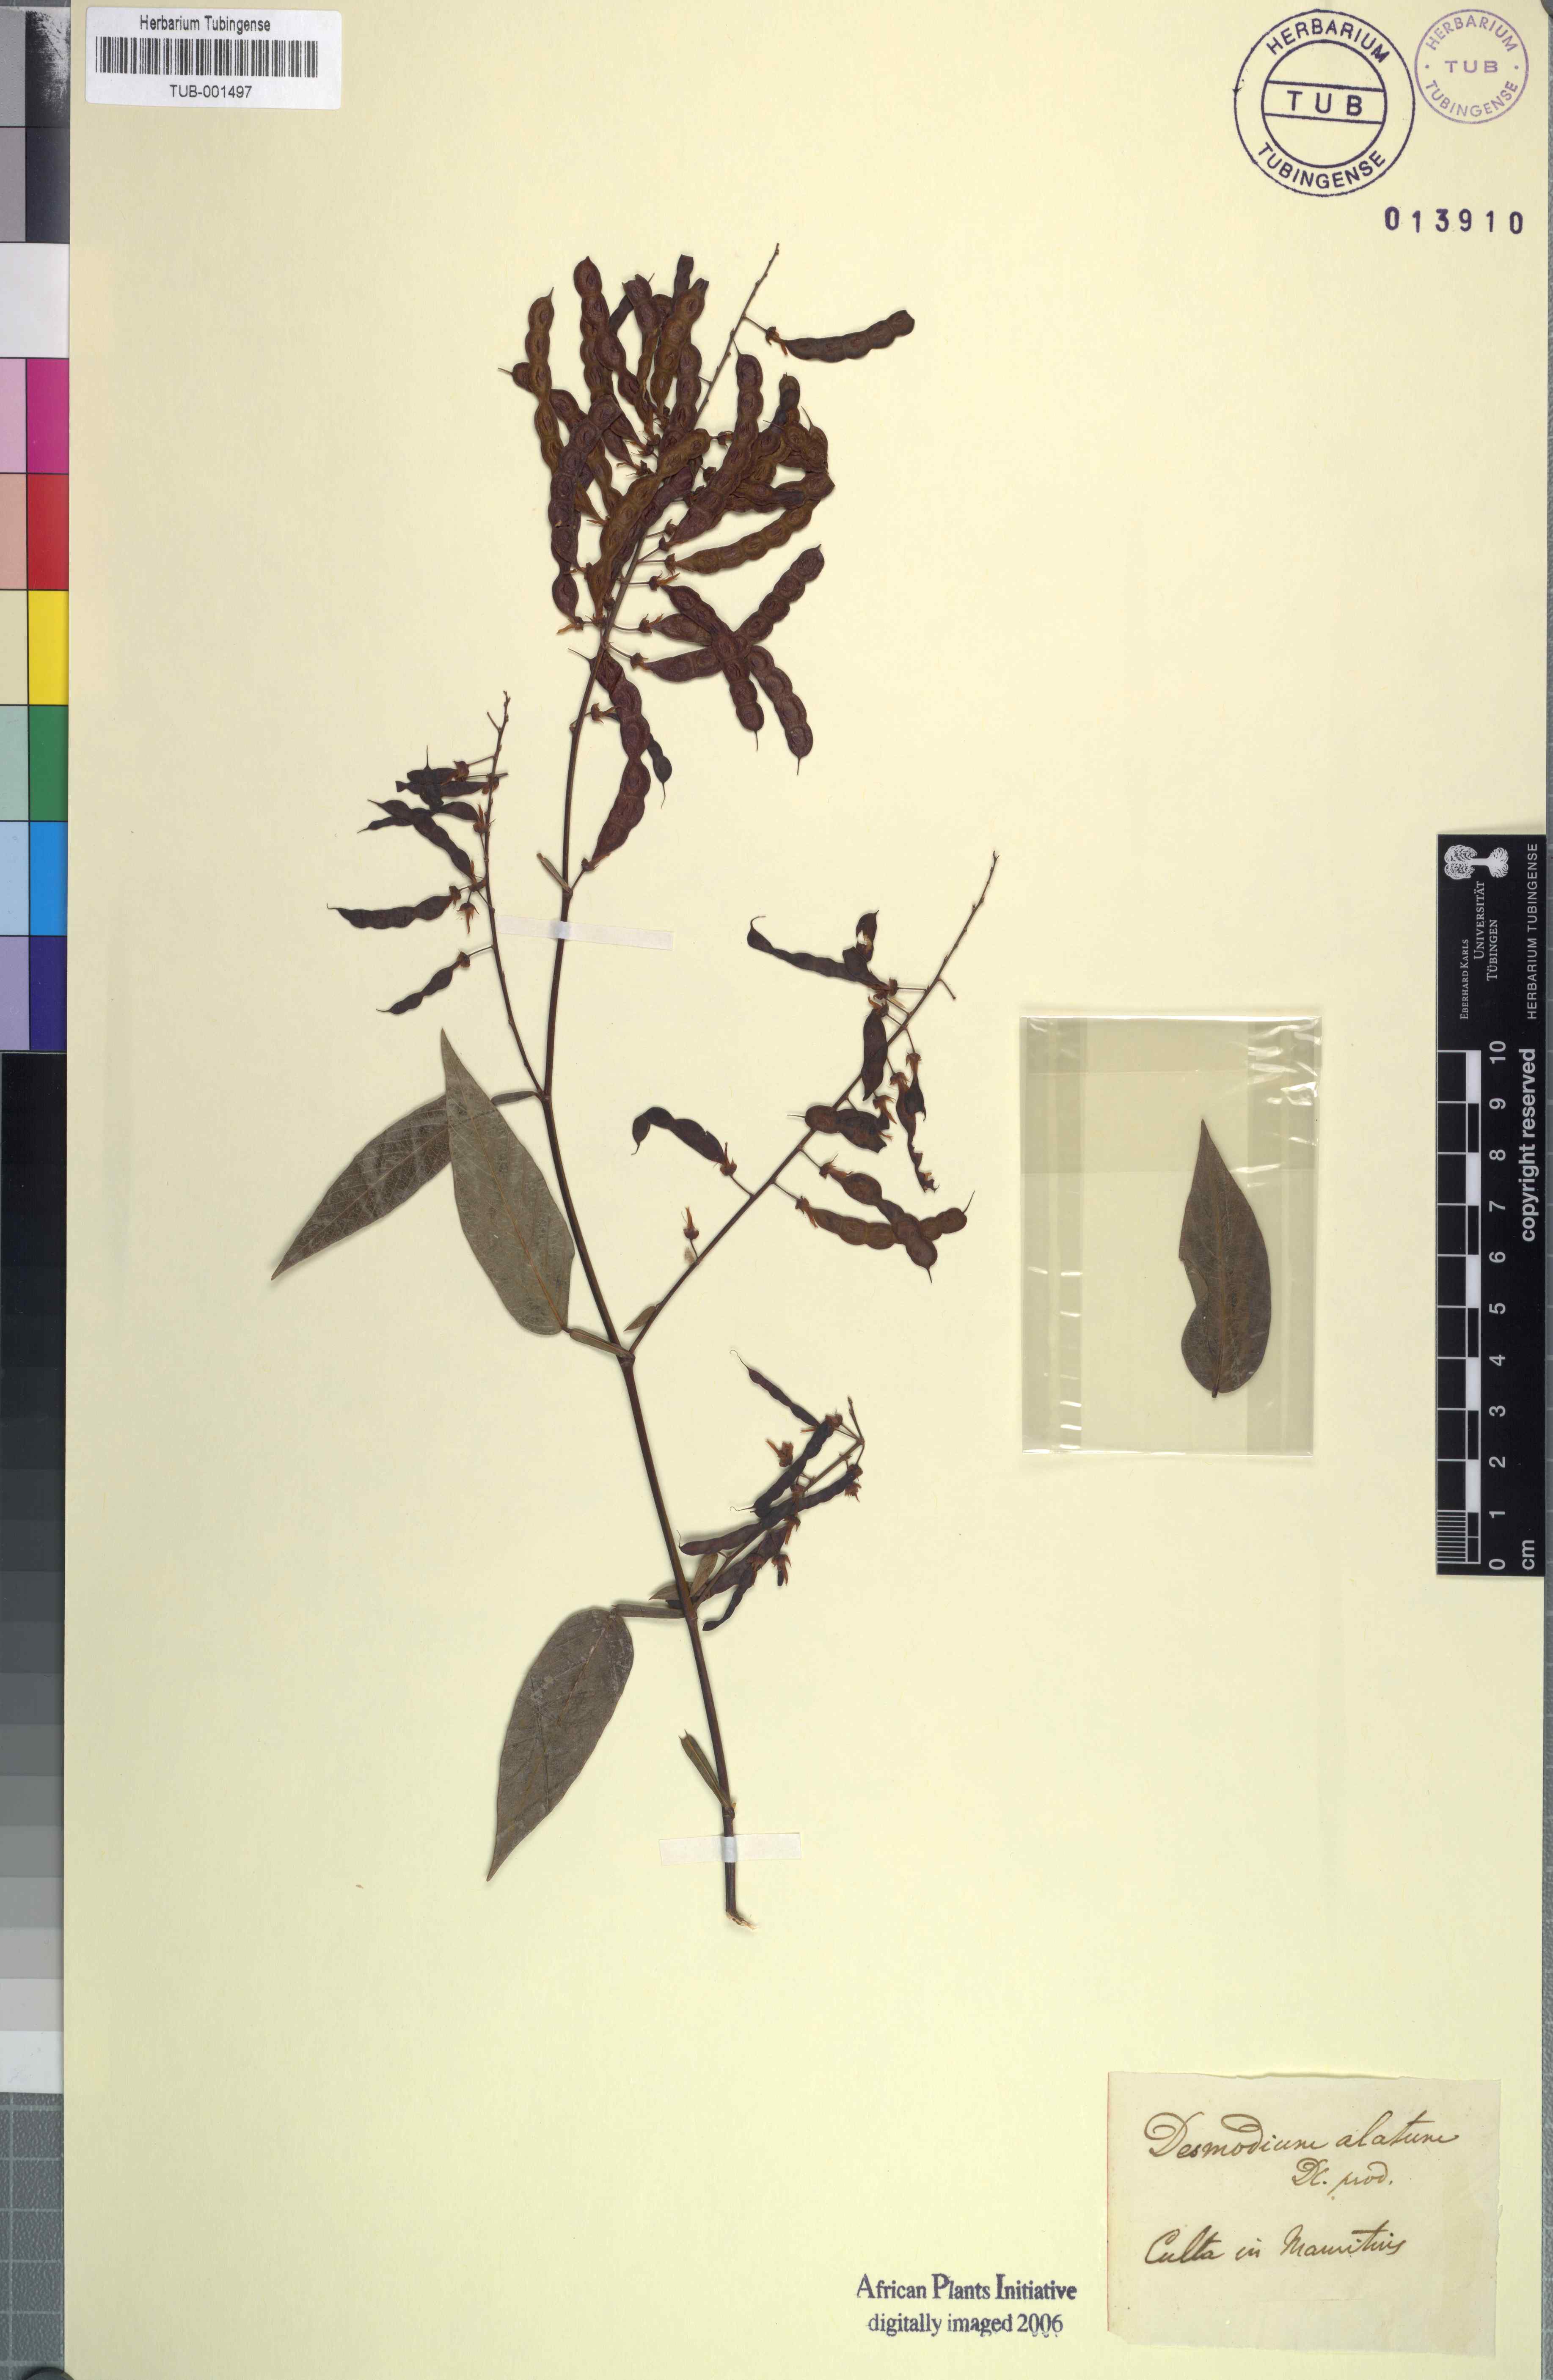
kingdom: Plantae
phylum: Tracheophyta
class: Magnoliopsida
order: Fabales
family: Fabaceae
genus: Tadehagi
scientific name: Tadehagi triquetrum
